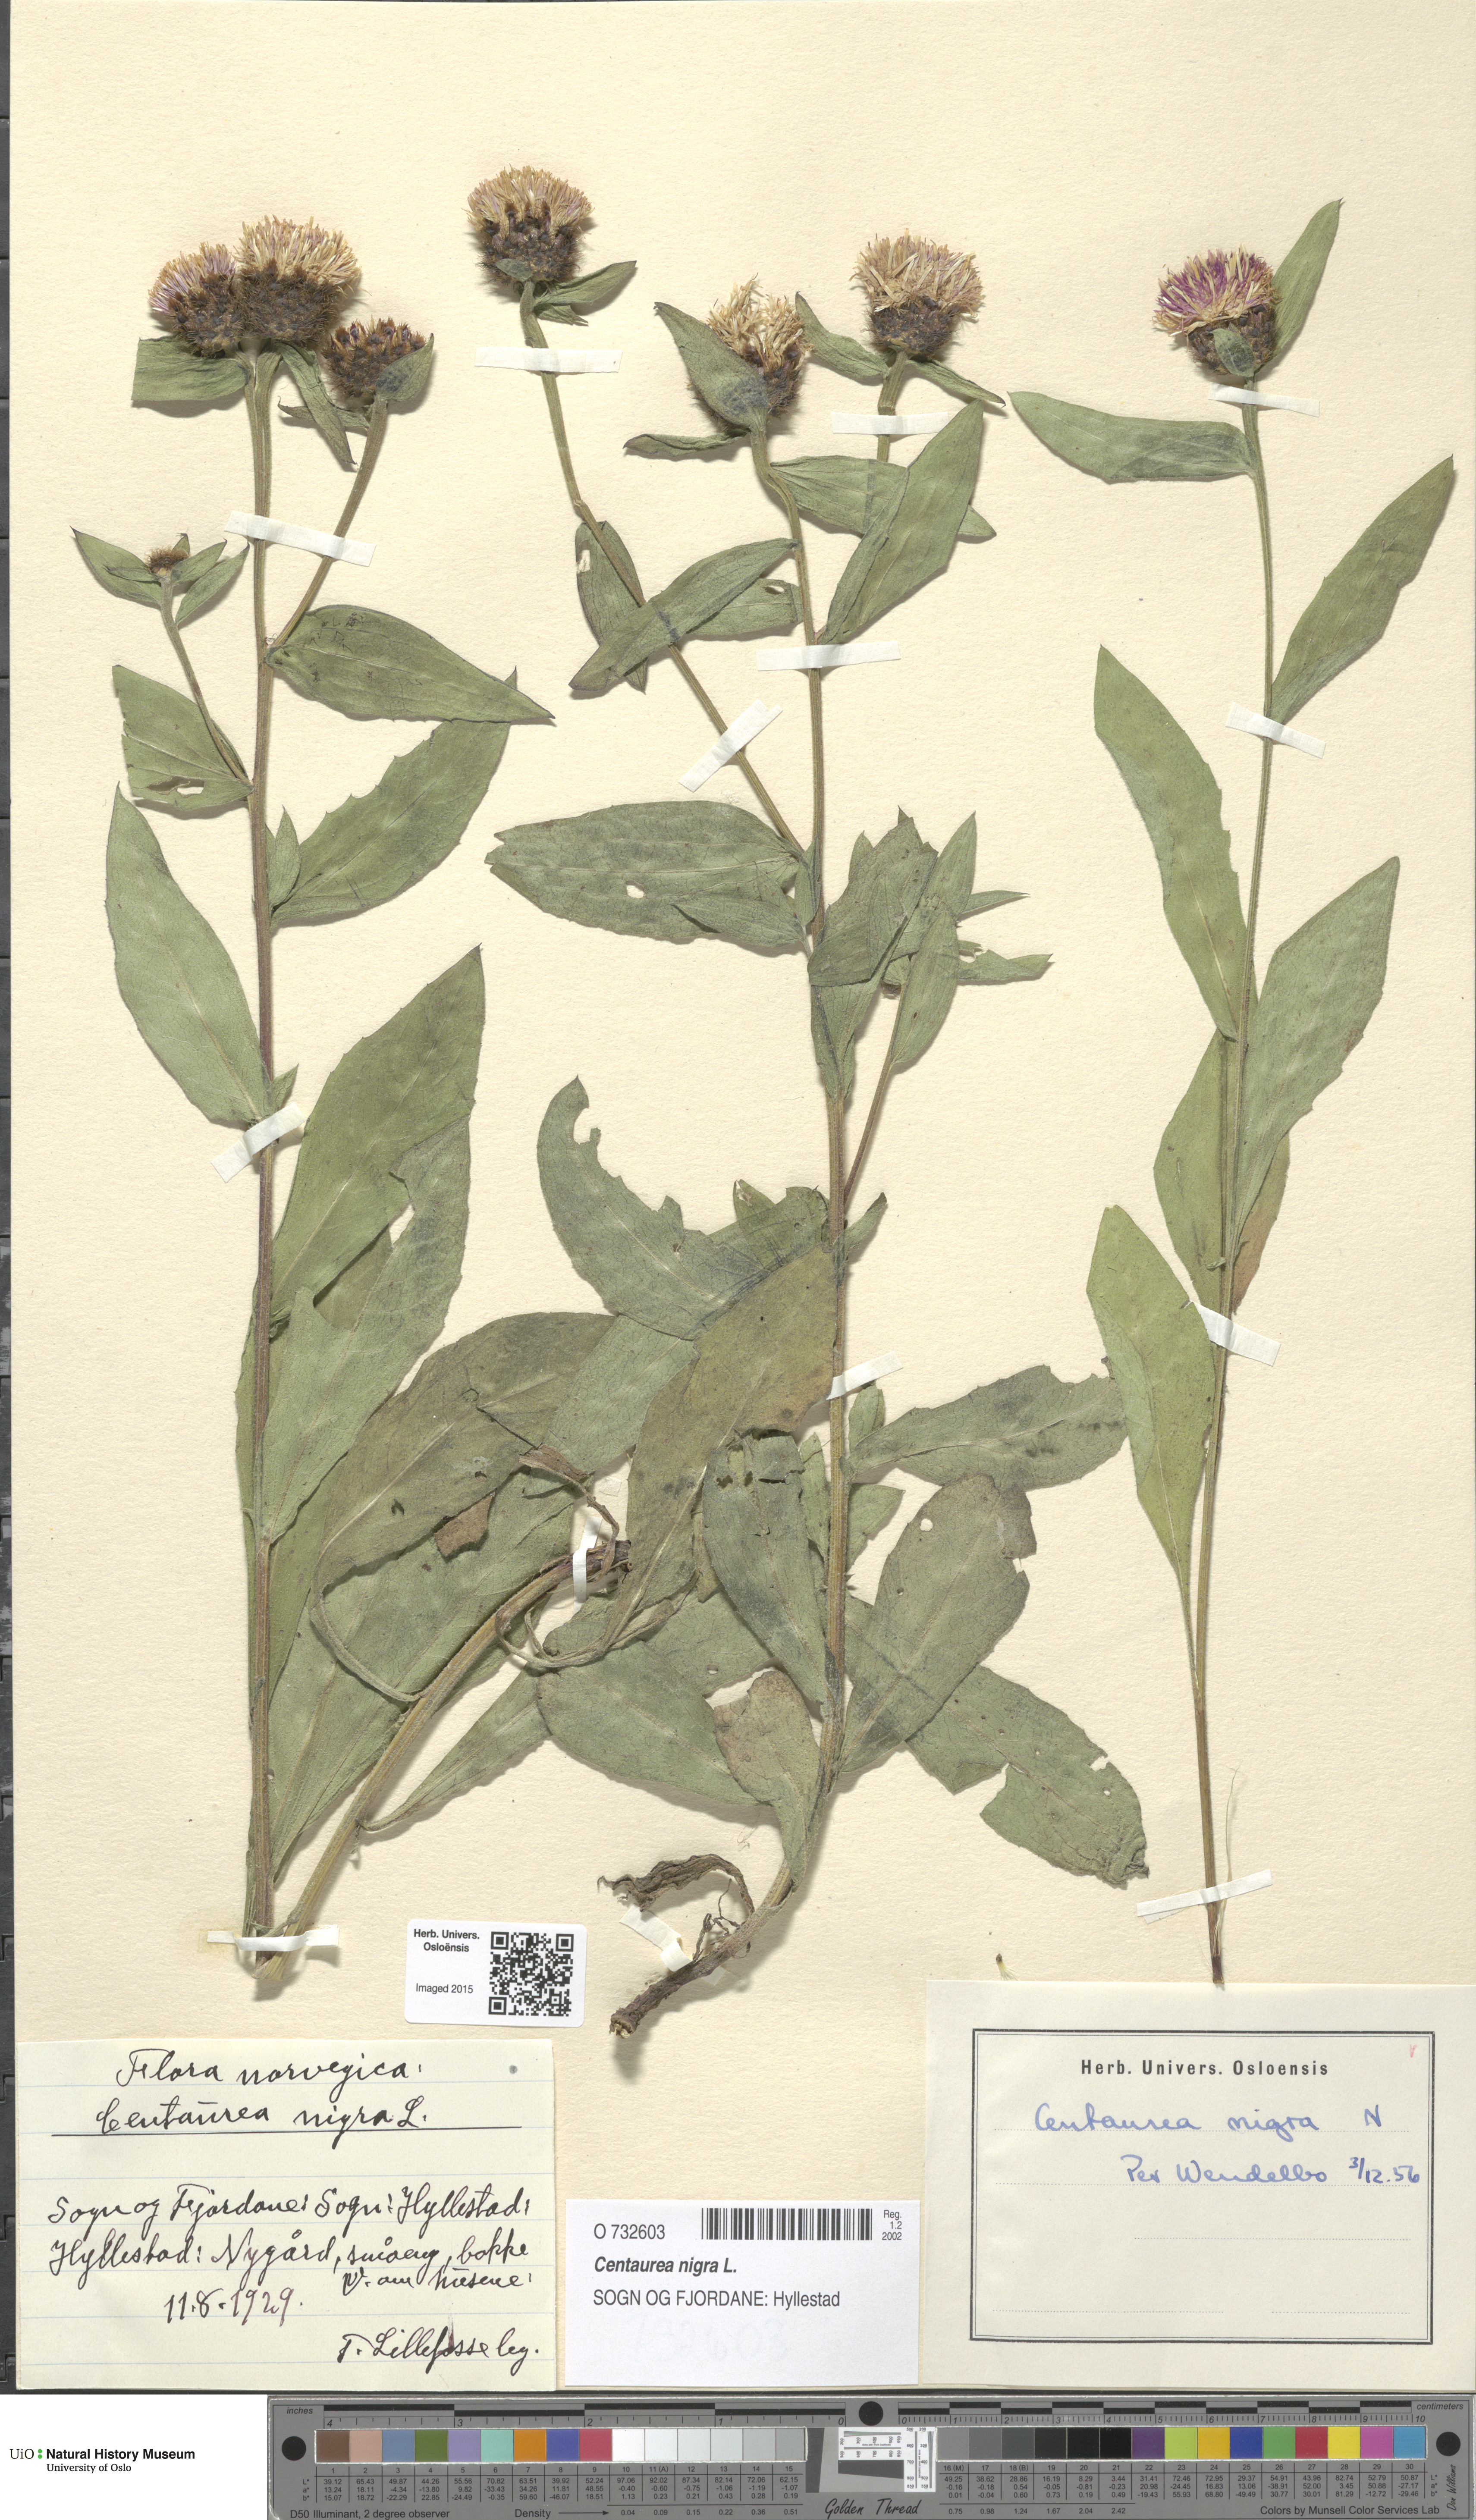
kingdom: Plantae
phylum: Tracheophyta
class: Magnoliopsida
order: Asterales
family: Asteraceae
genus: Centaurea
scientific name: Centaurea nigra
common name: Lesser knapweed
